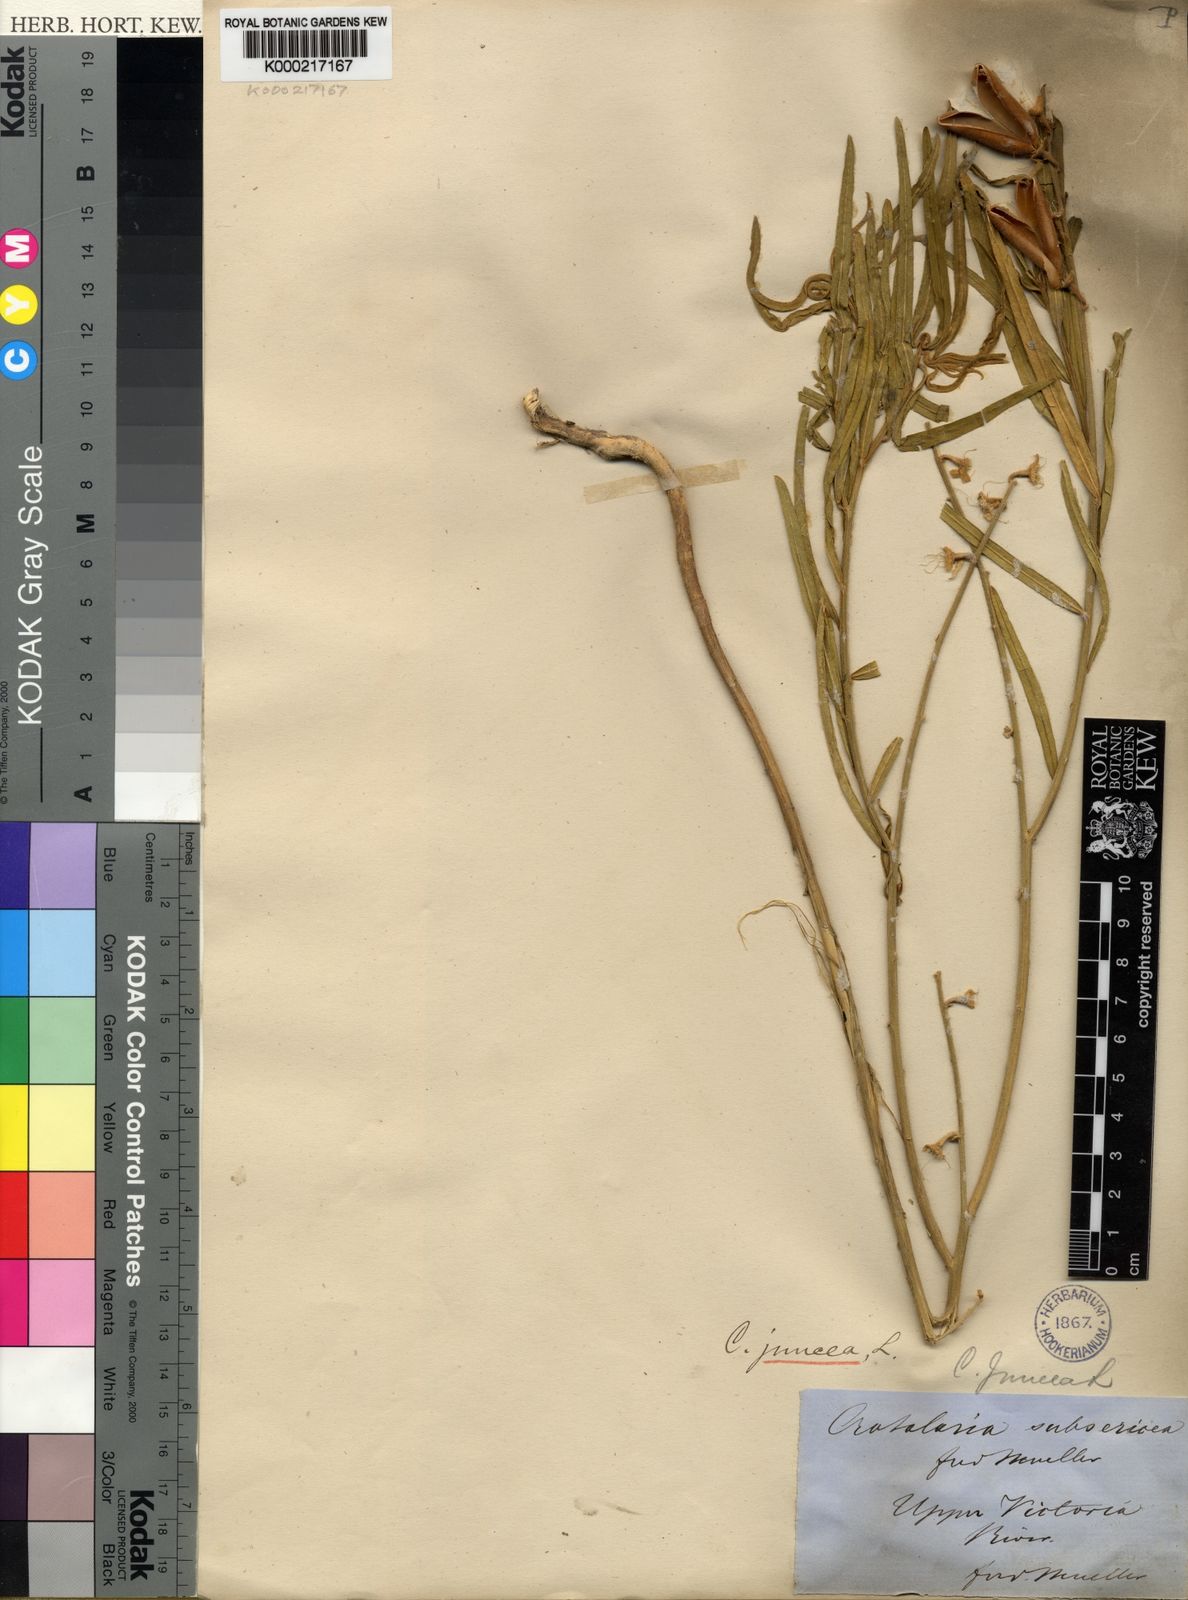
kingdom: Plantae
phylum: Tracheophyta
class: Magnoliopsida
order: Fabales
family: Fabaceae
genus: Crotalaria
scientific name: Crotalaria juncea
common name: Sunn hemp
